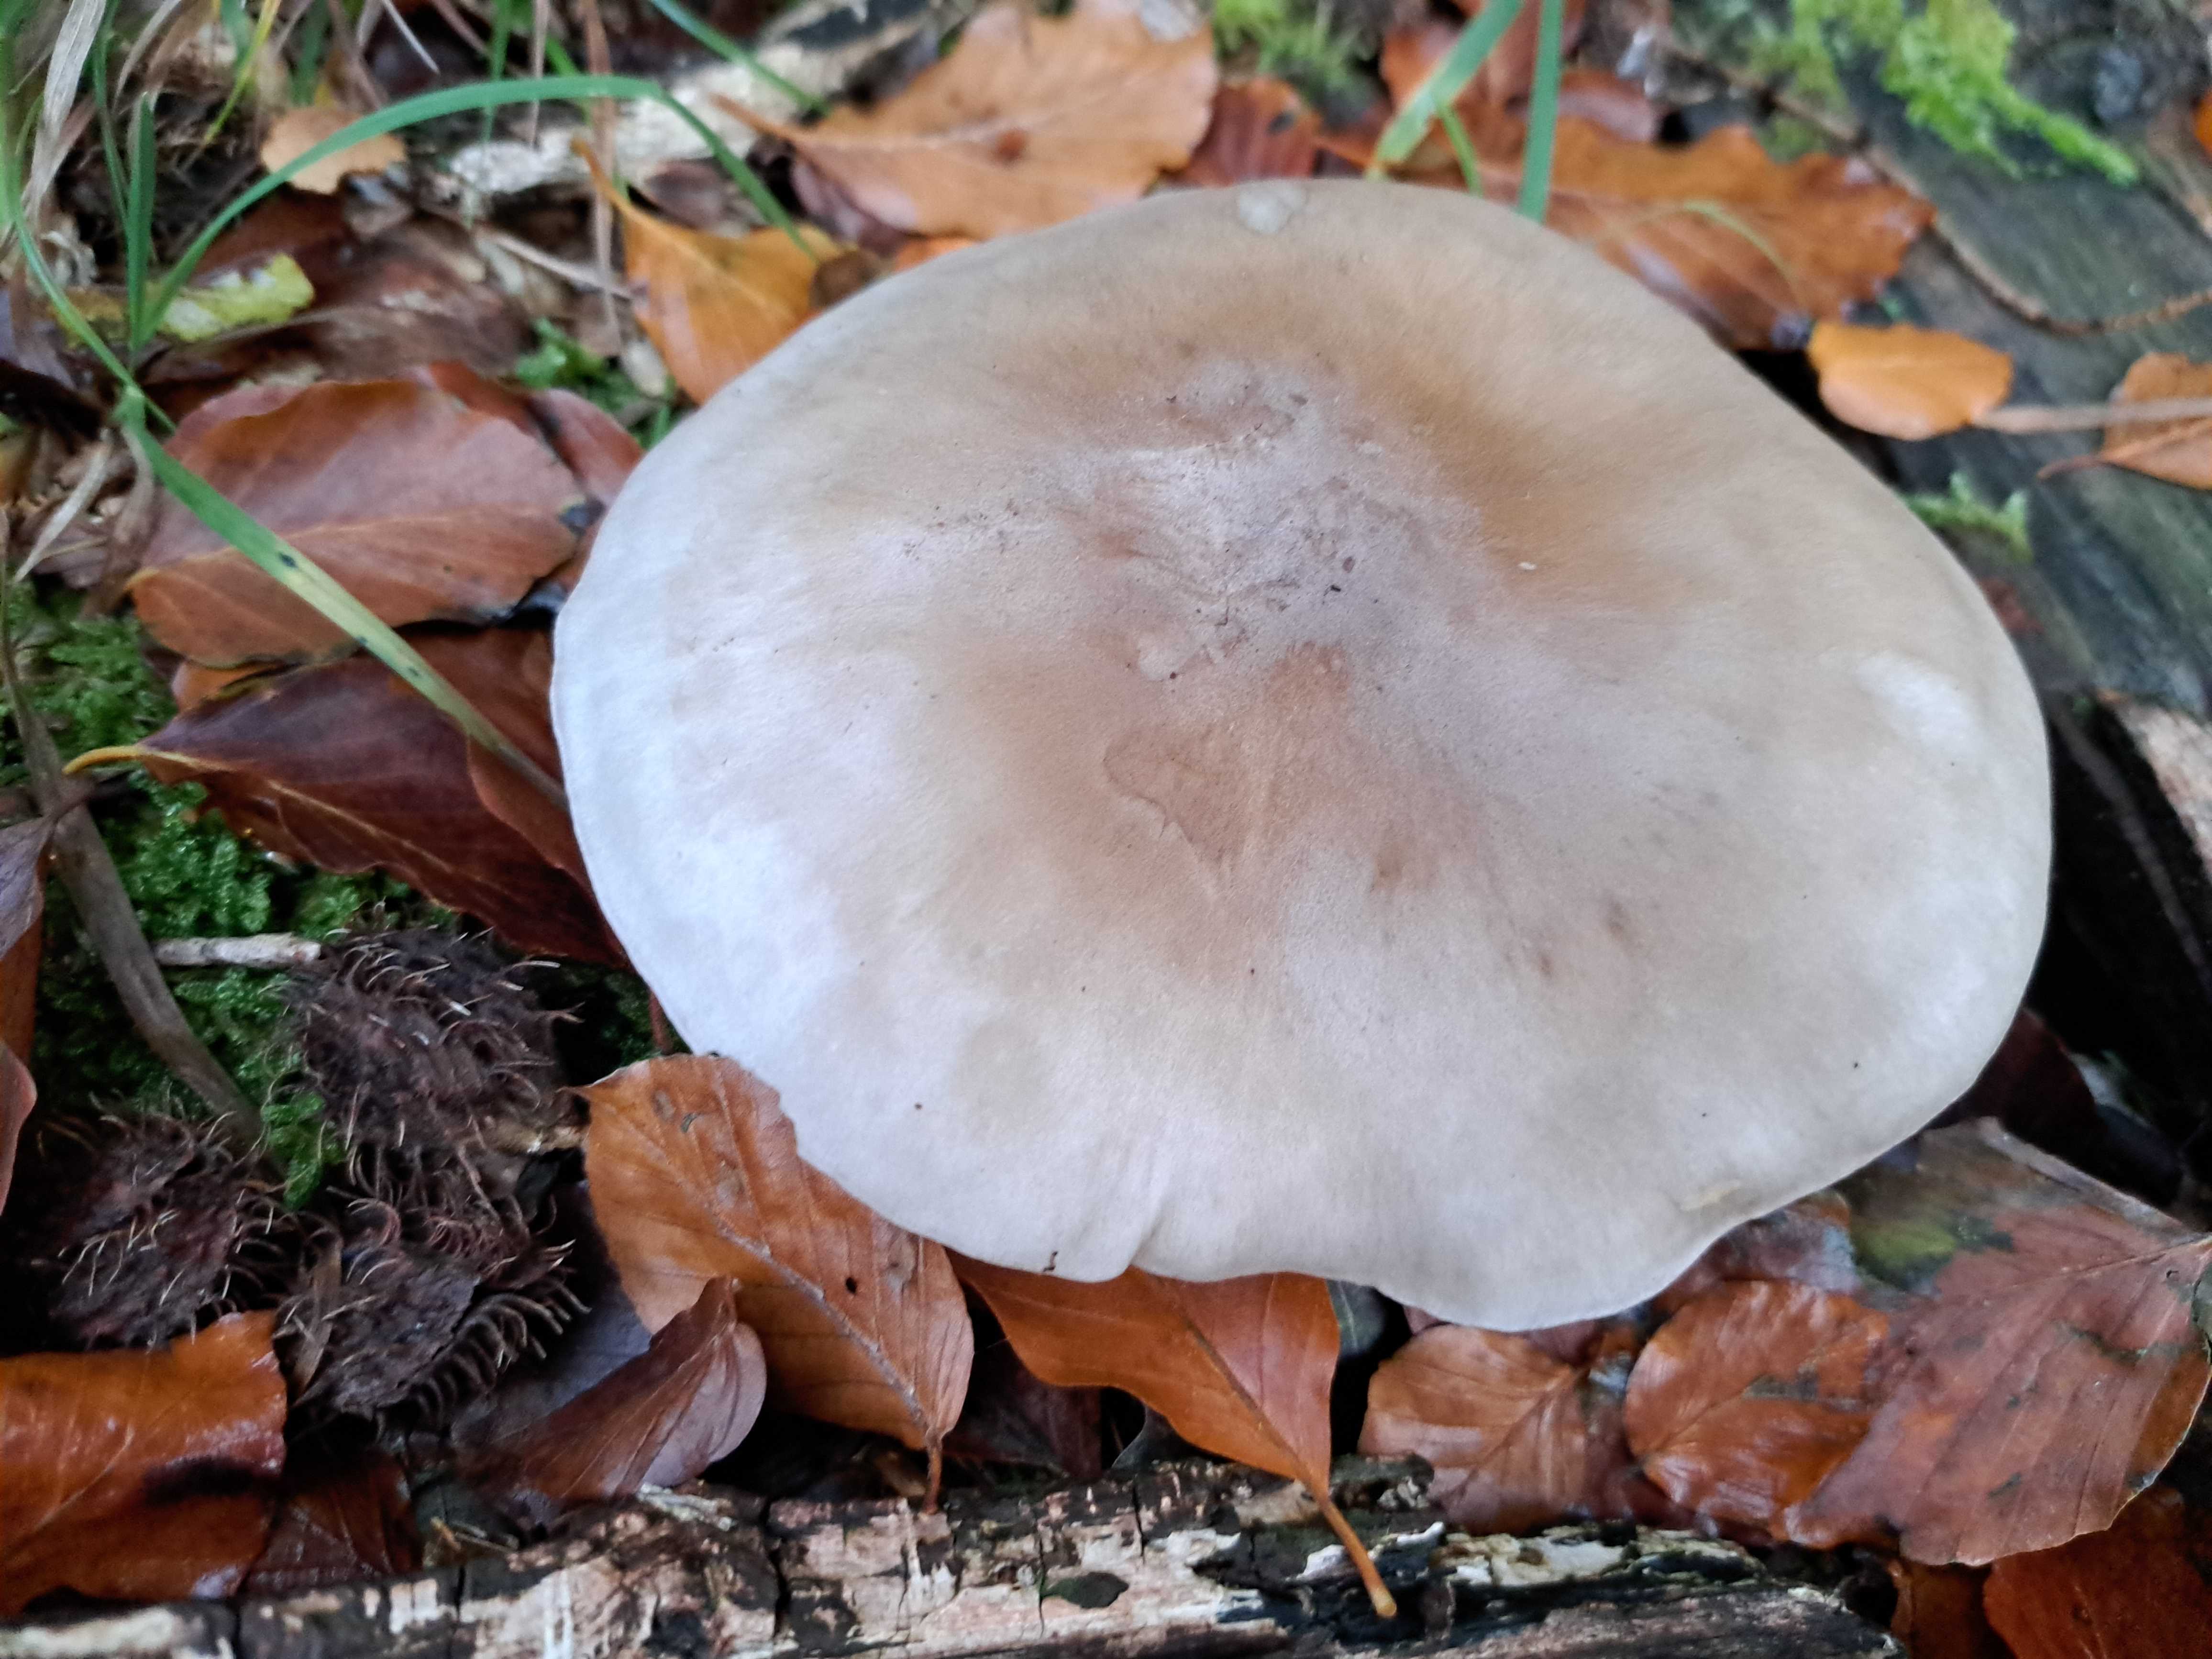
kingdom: Fungi
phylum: Basidiomycota
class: Agaricomycetes
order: Agaricales
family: Tricholomataceae
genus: Clitocybe
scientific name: Clitocybe nebularis
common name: tåge-tragthat
